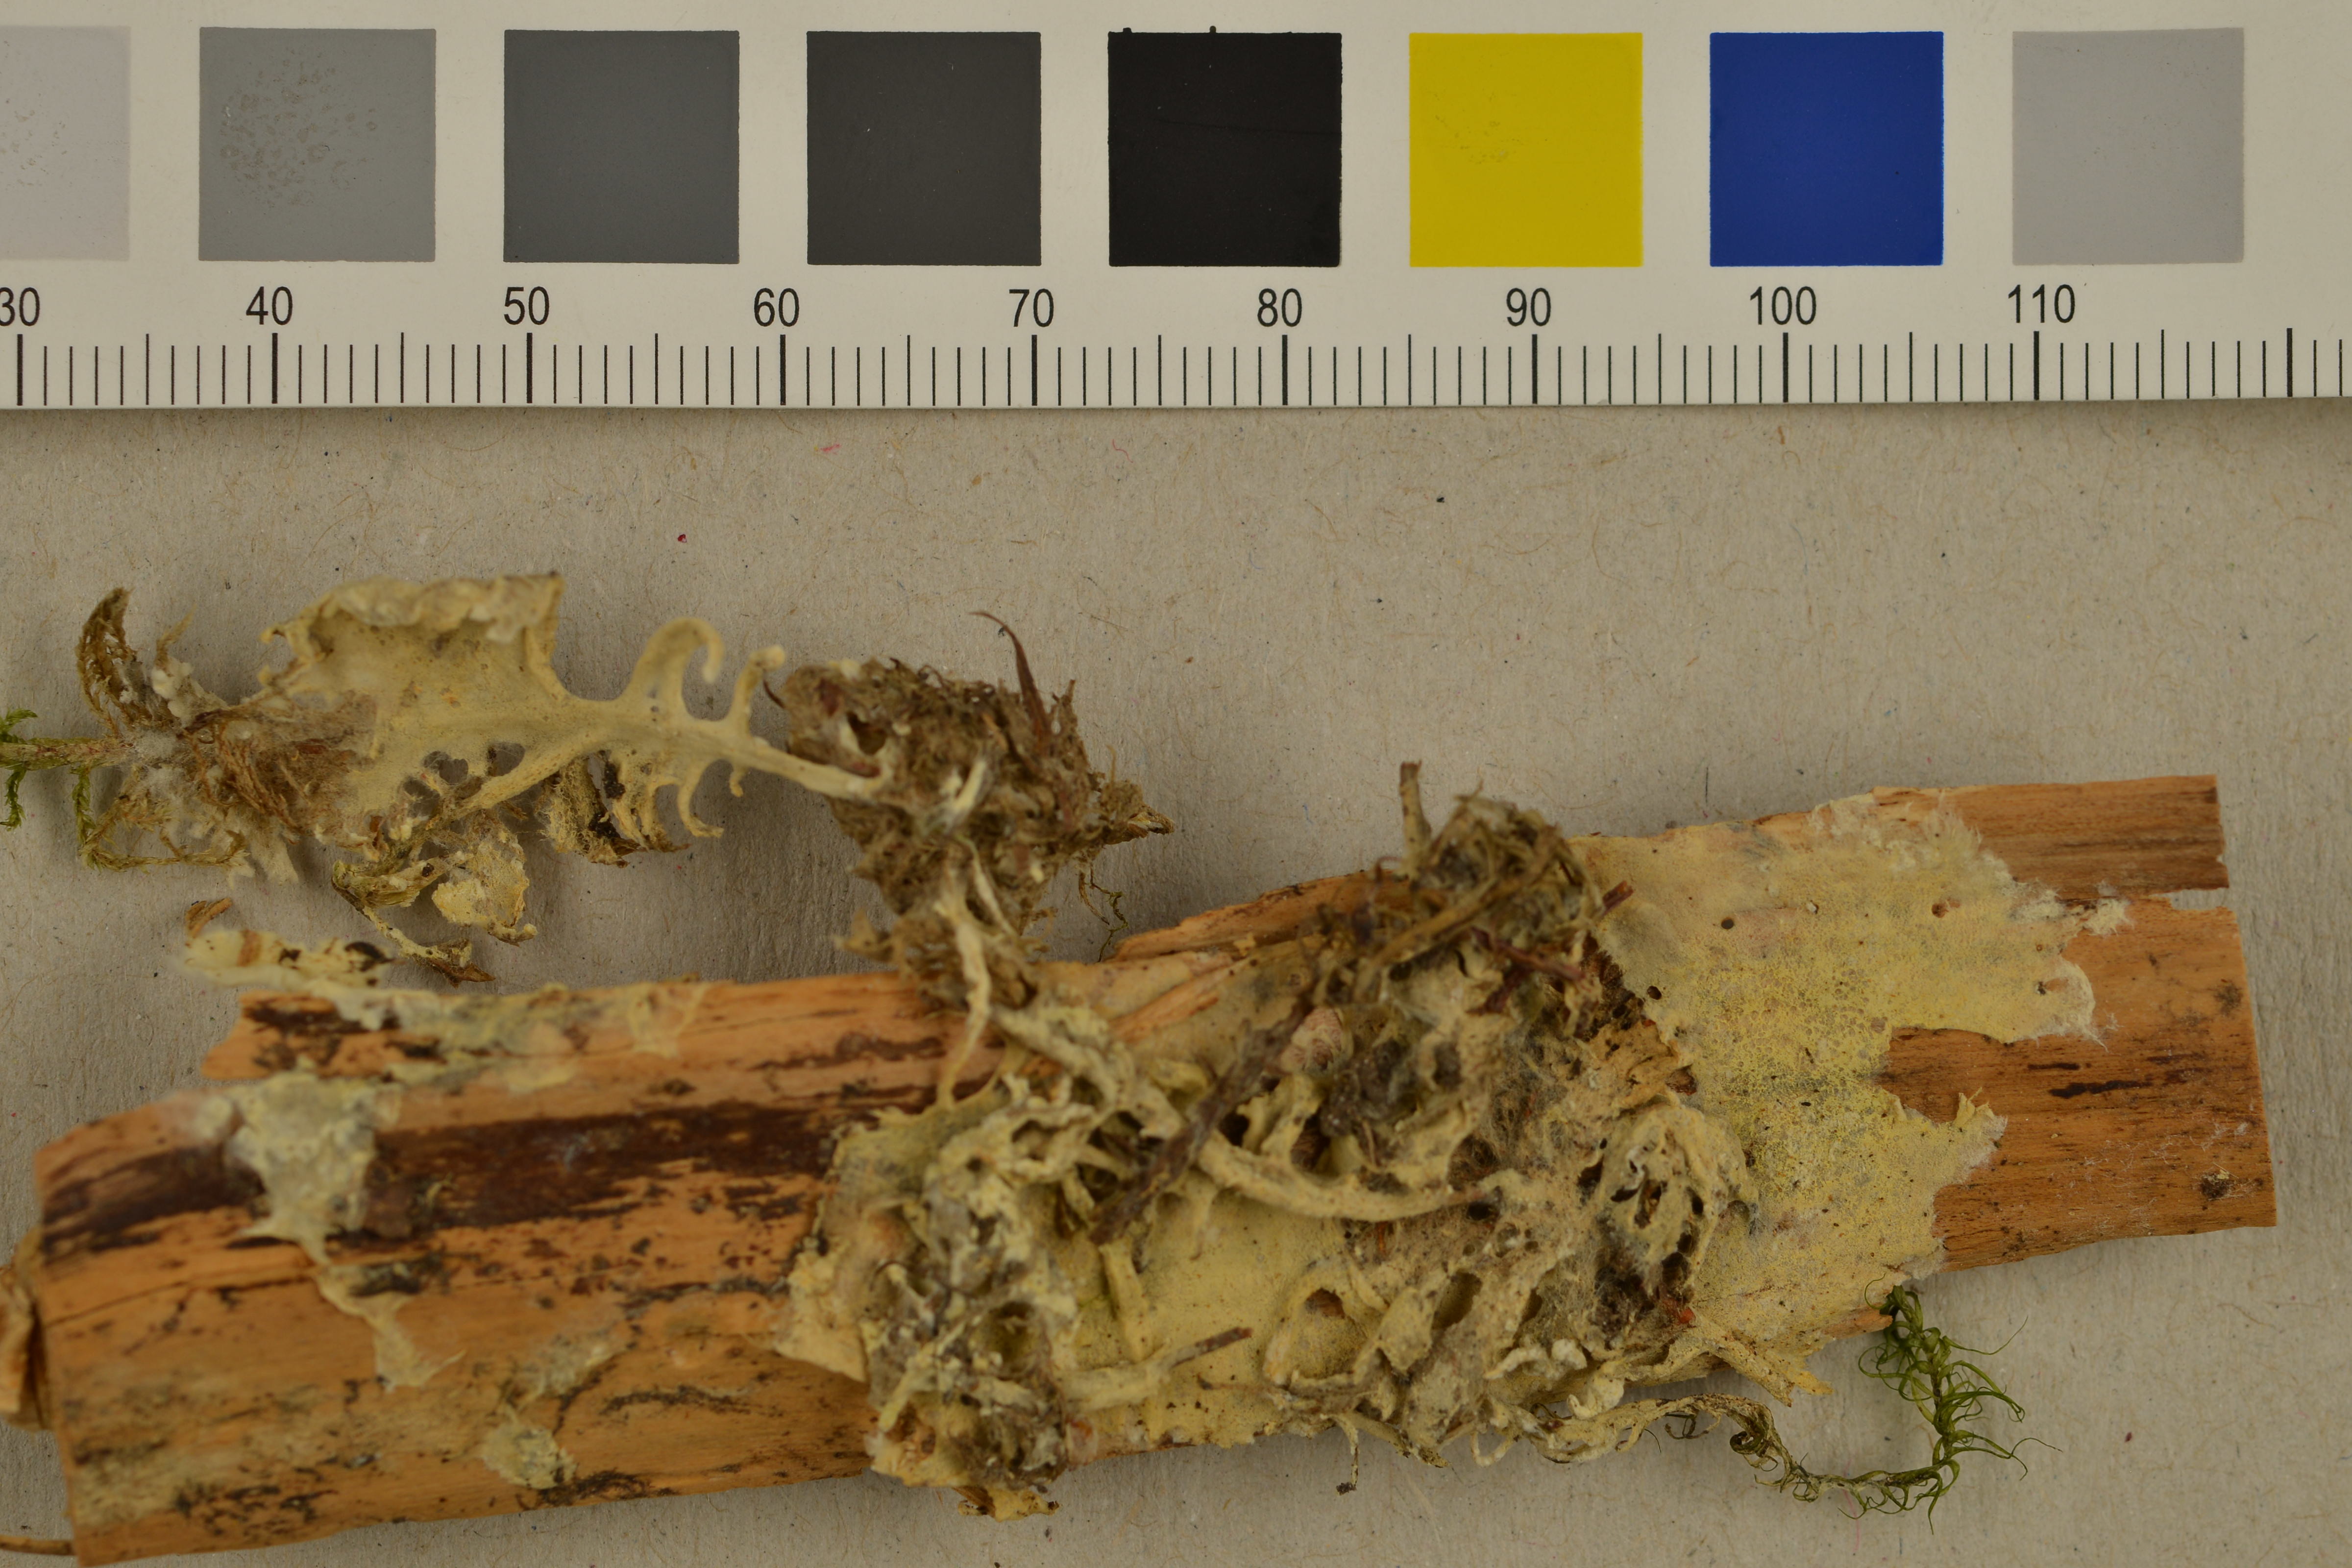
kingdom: Fungi
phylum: Basidiomycota
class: Agaricomycetes
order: Atheliales
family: Atheliaceae
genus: Amphinema
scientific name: Amphinema byssoides
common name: Cratered duster
